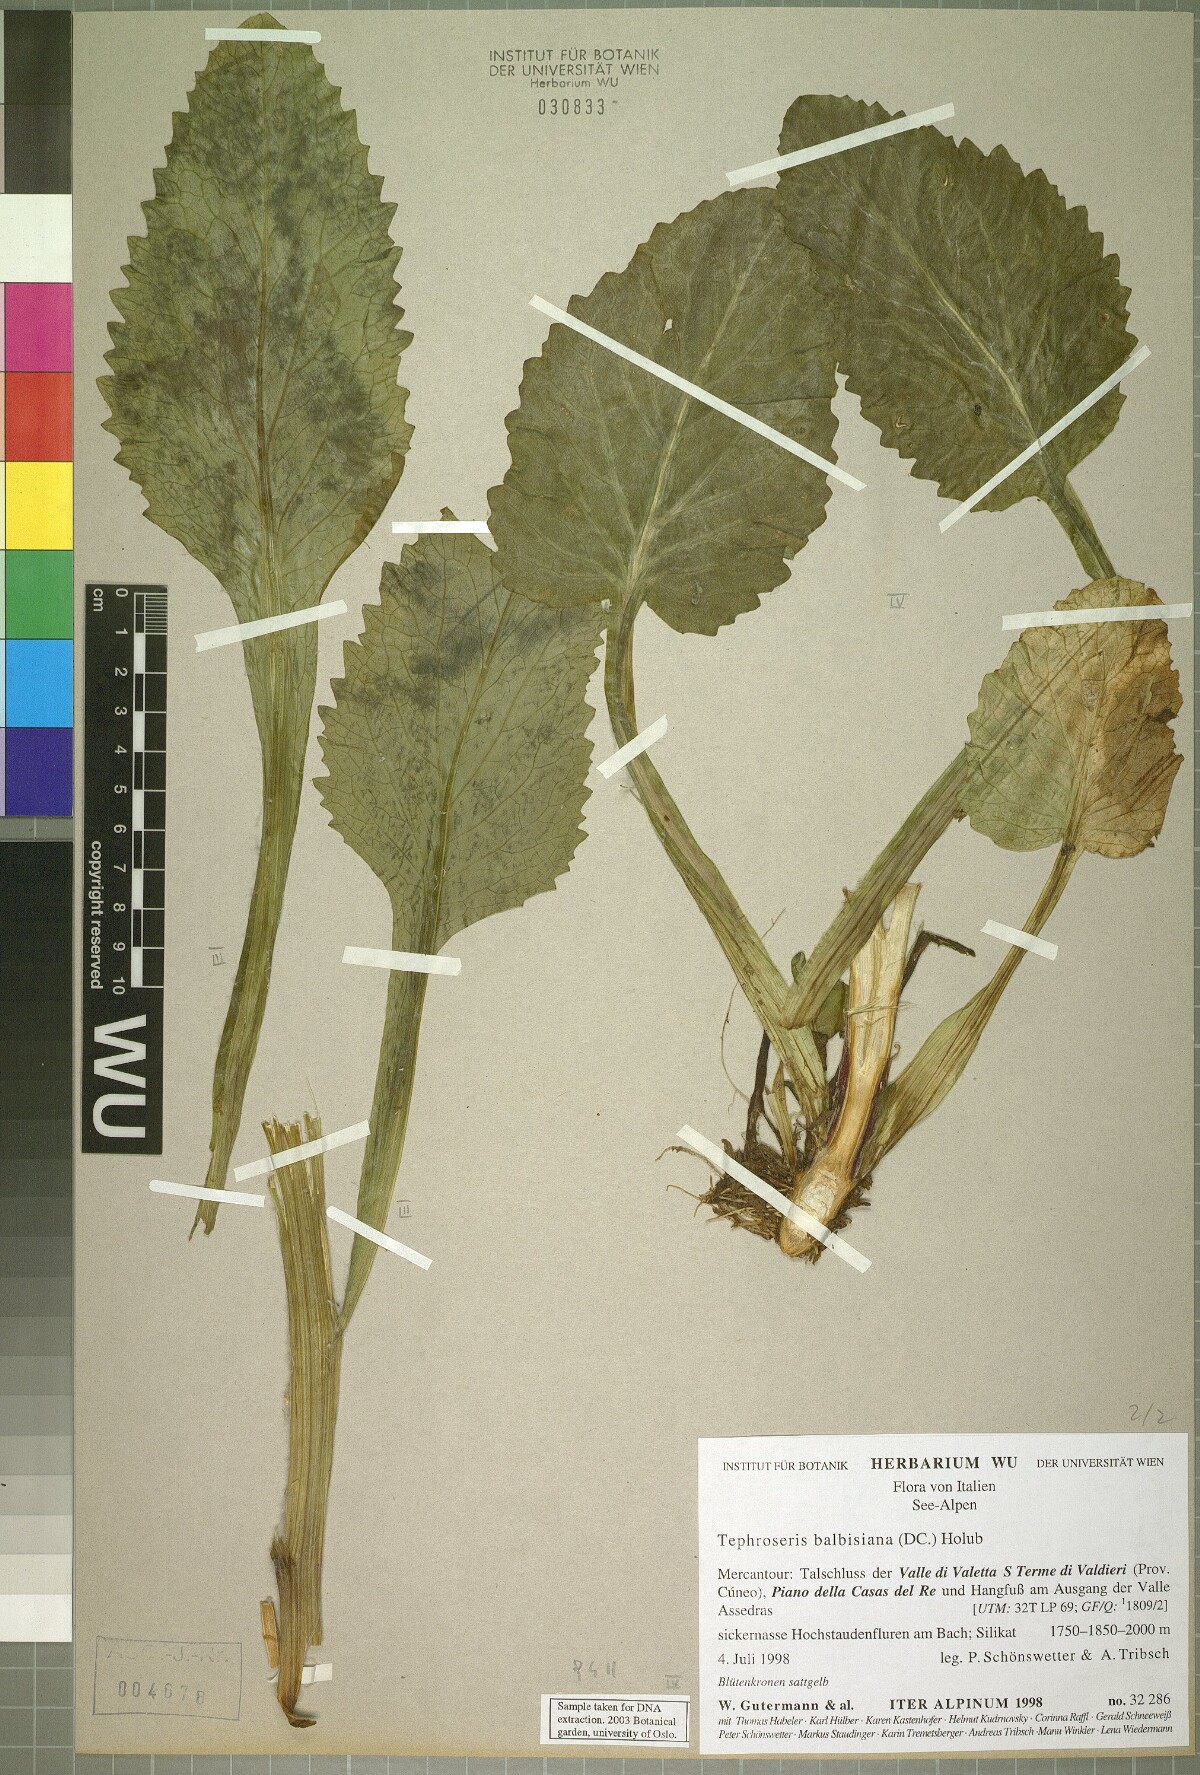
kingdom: Plantae
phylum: Tracheophyta
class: Magnoliopsida
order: Asterales
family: Asteraceae
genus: Tephroseris
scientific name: Tephroseris balbisiana
